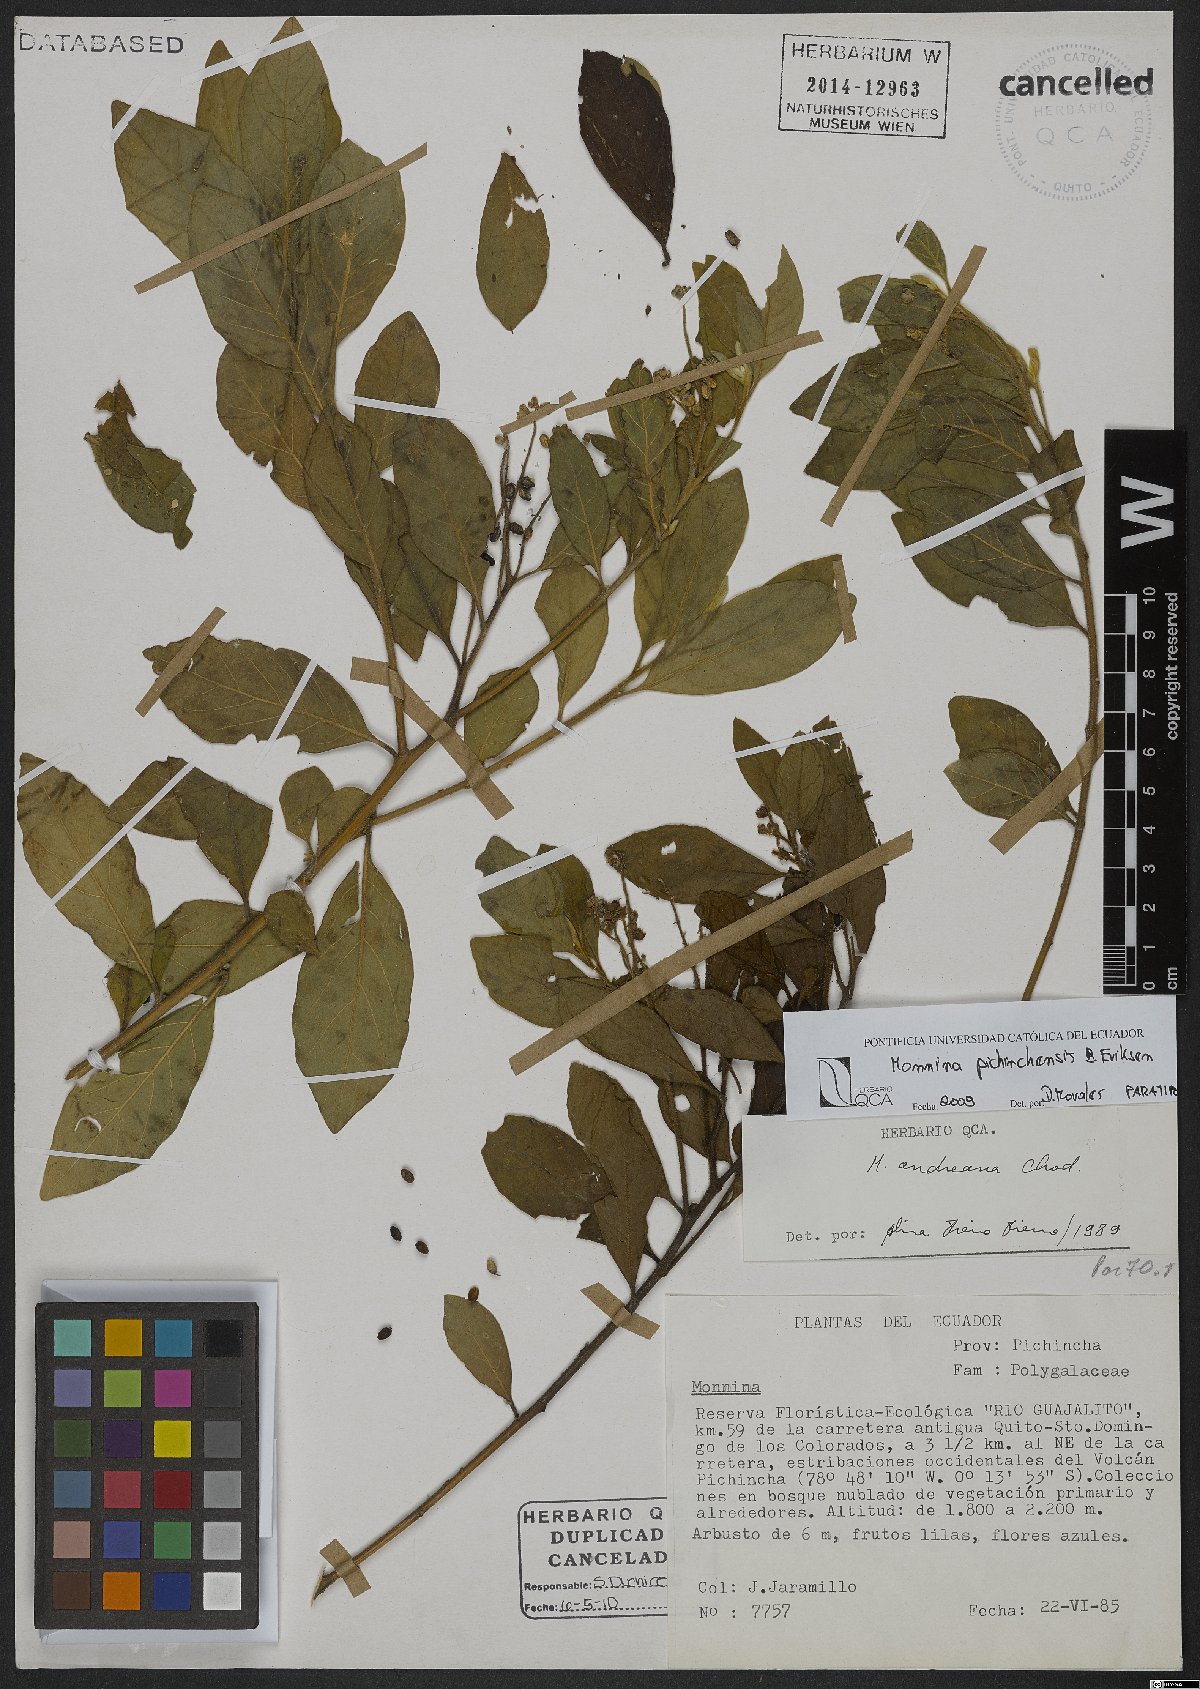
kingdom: Plantae
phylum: Tracheophyta
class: Magnoliopsida
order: Fabales
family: Polygalaceae
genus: Monnina
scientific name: Monnina pichinchensis
